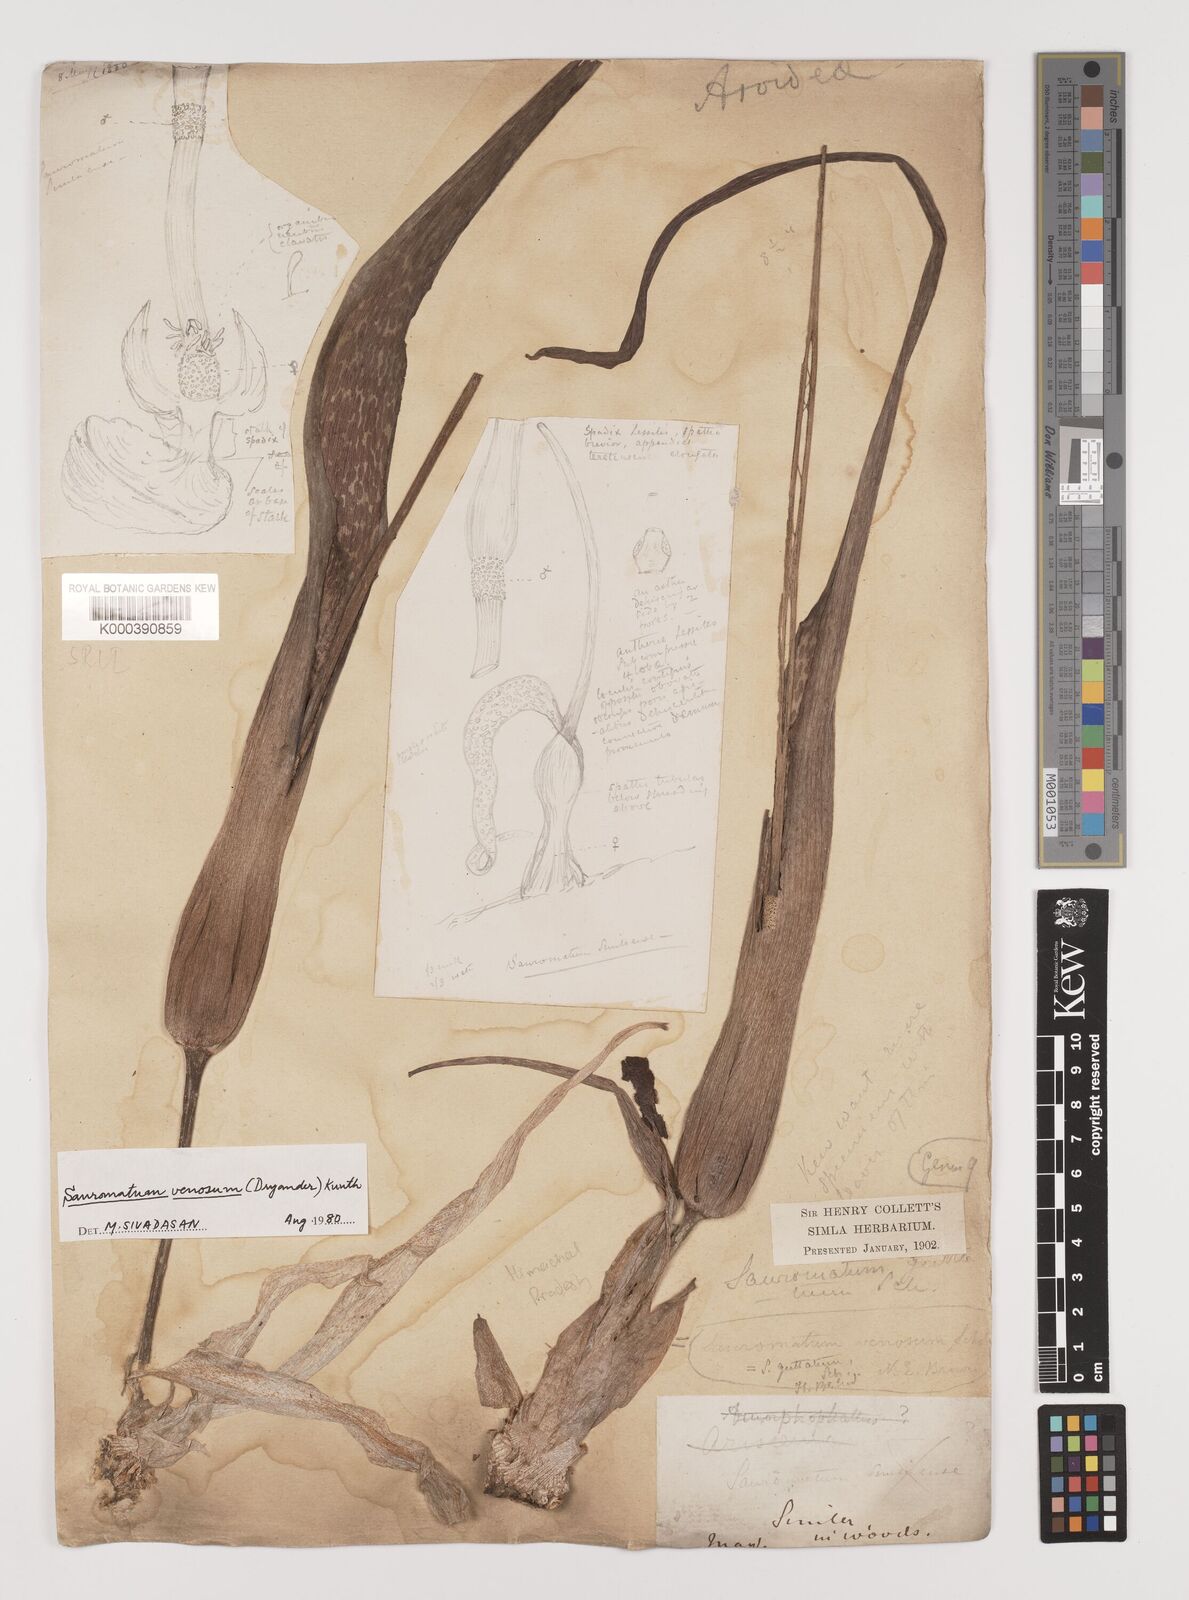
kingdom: Plantae
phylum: Tracheophyta
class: Liliopsida
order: Alismatales
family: Araceae
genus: Sauromatum
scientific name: Sauromatum venosum
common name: Voodoo lily
